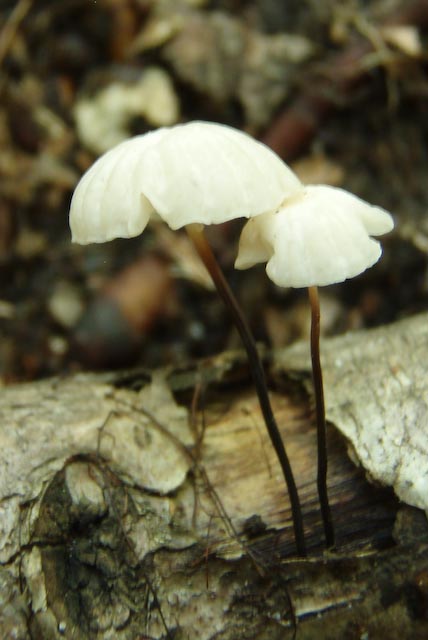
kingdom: Fungi
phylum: Basidiomycota
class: Agaricomycetes
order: Agaricales
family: Marasmiaceae
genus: Marasmius
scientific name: Marasmius rotula
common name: hjul-bruskhat
